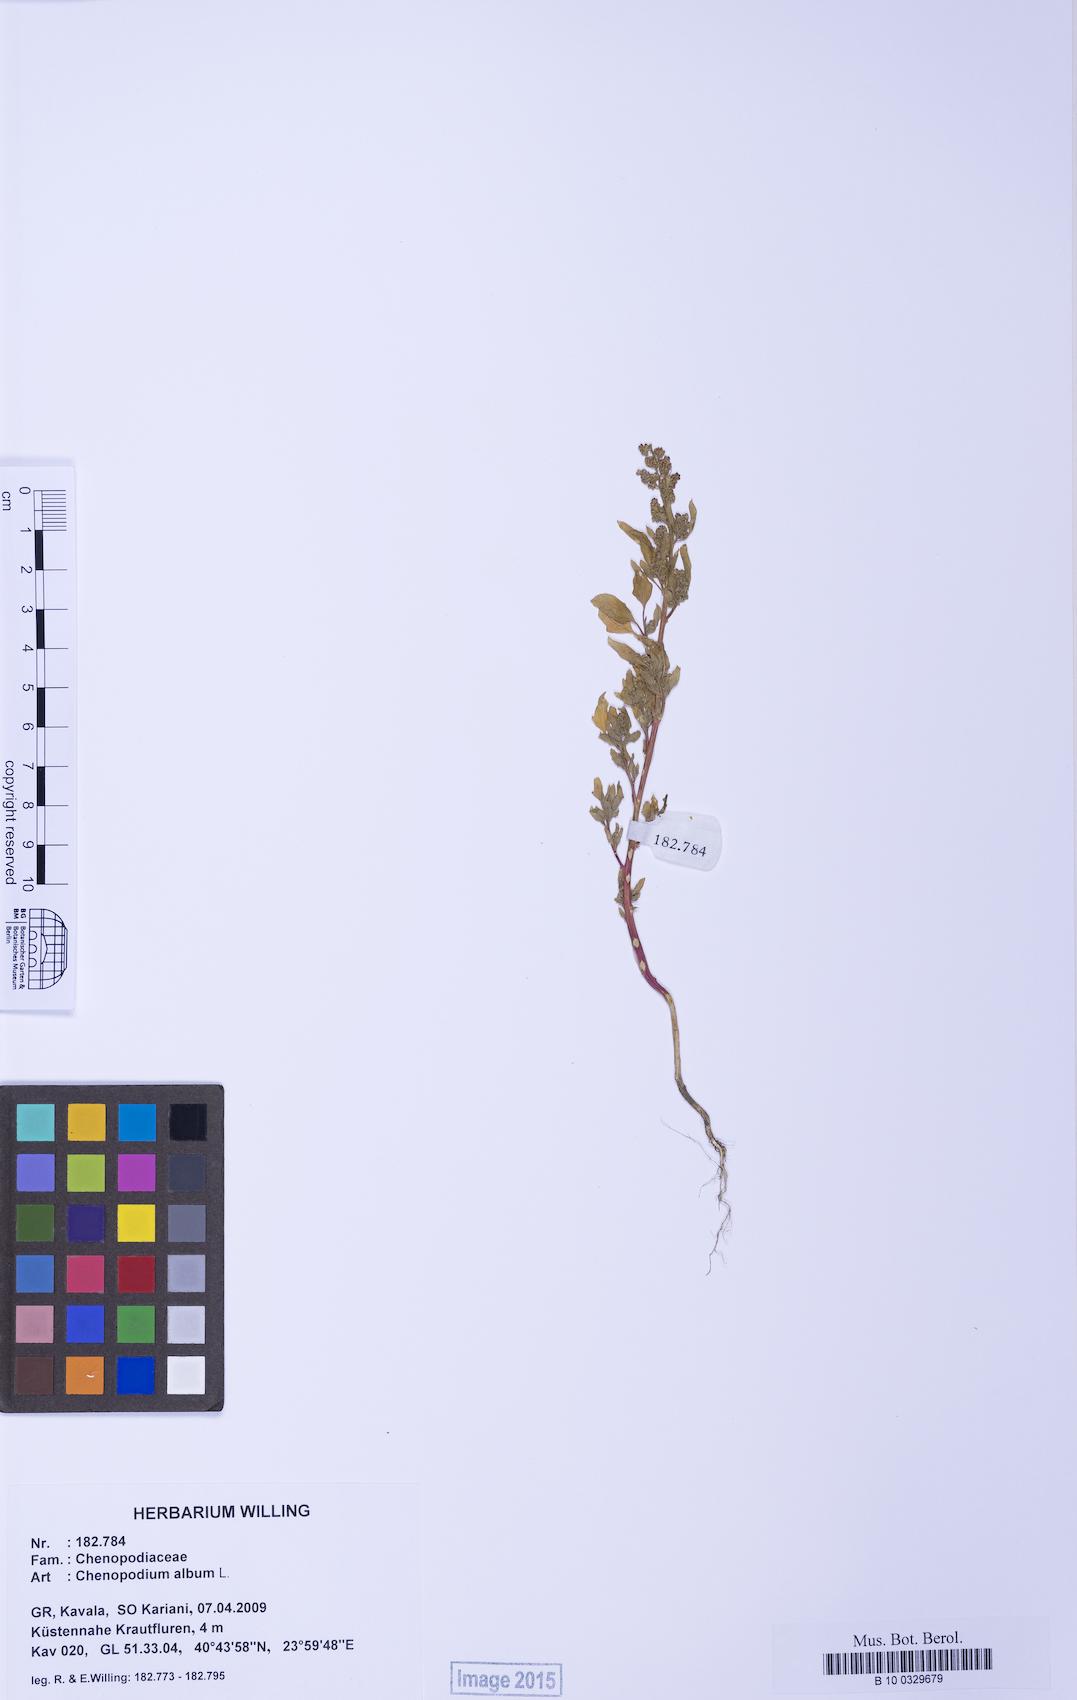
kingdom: Plantae
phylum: Tracheophyta
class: Magnoliopsida
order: Caryophyllales
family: Amaranthaceae
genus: Chenopodium
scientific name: Chenopodium album
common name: Fat-hen
